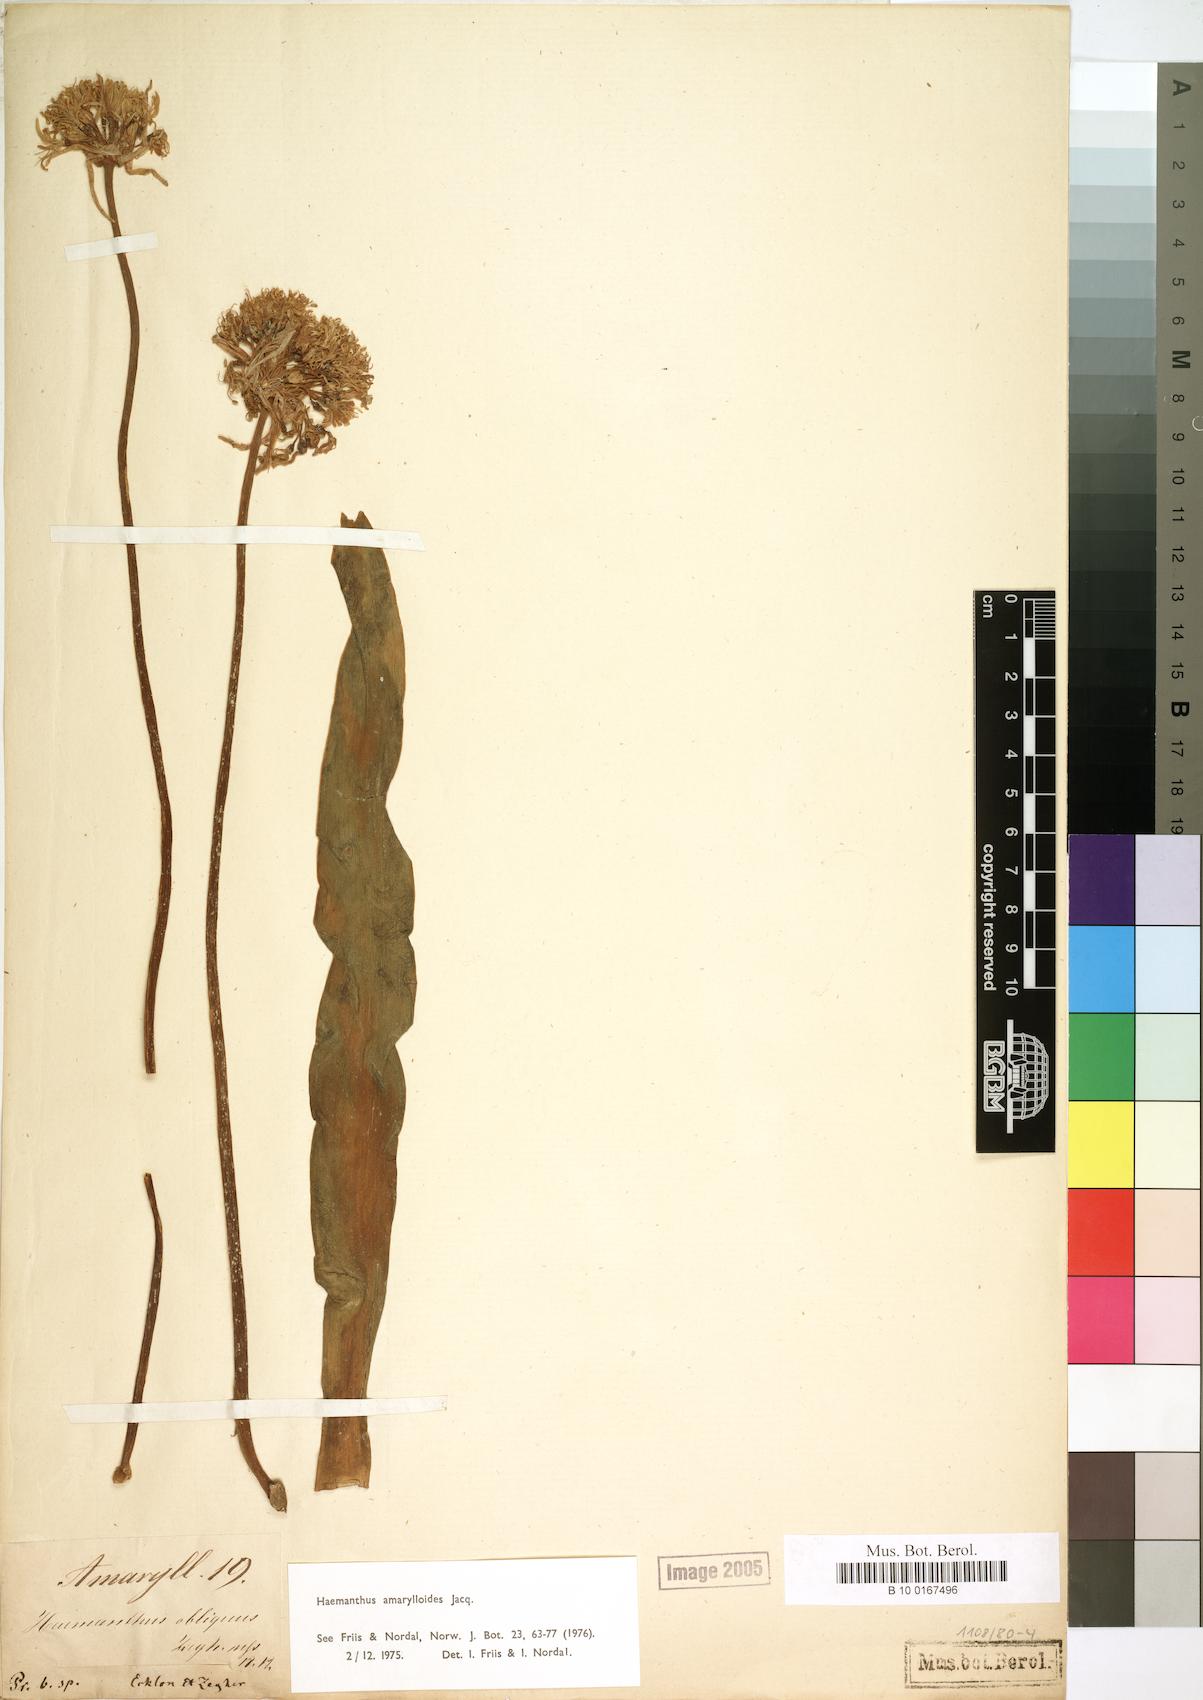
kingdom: Plantae
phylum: Tracheophyta
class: Liliopsida
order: Asparagales
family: Amaryllidaceae
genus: Haemanthus
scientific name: Haemanthus amarylloides
